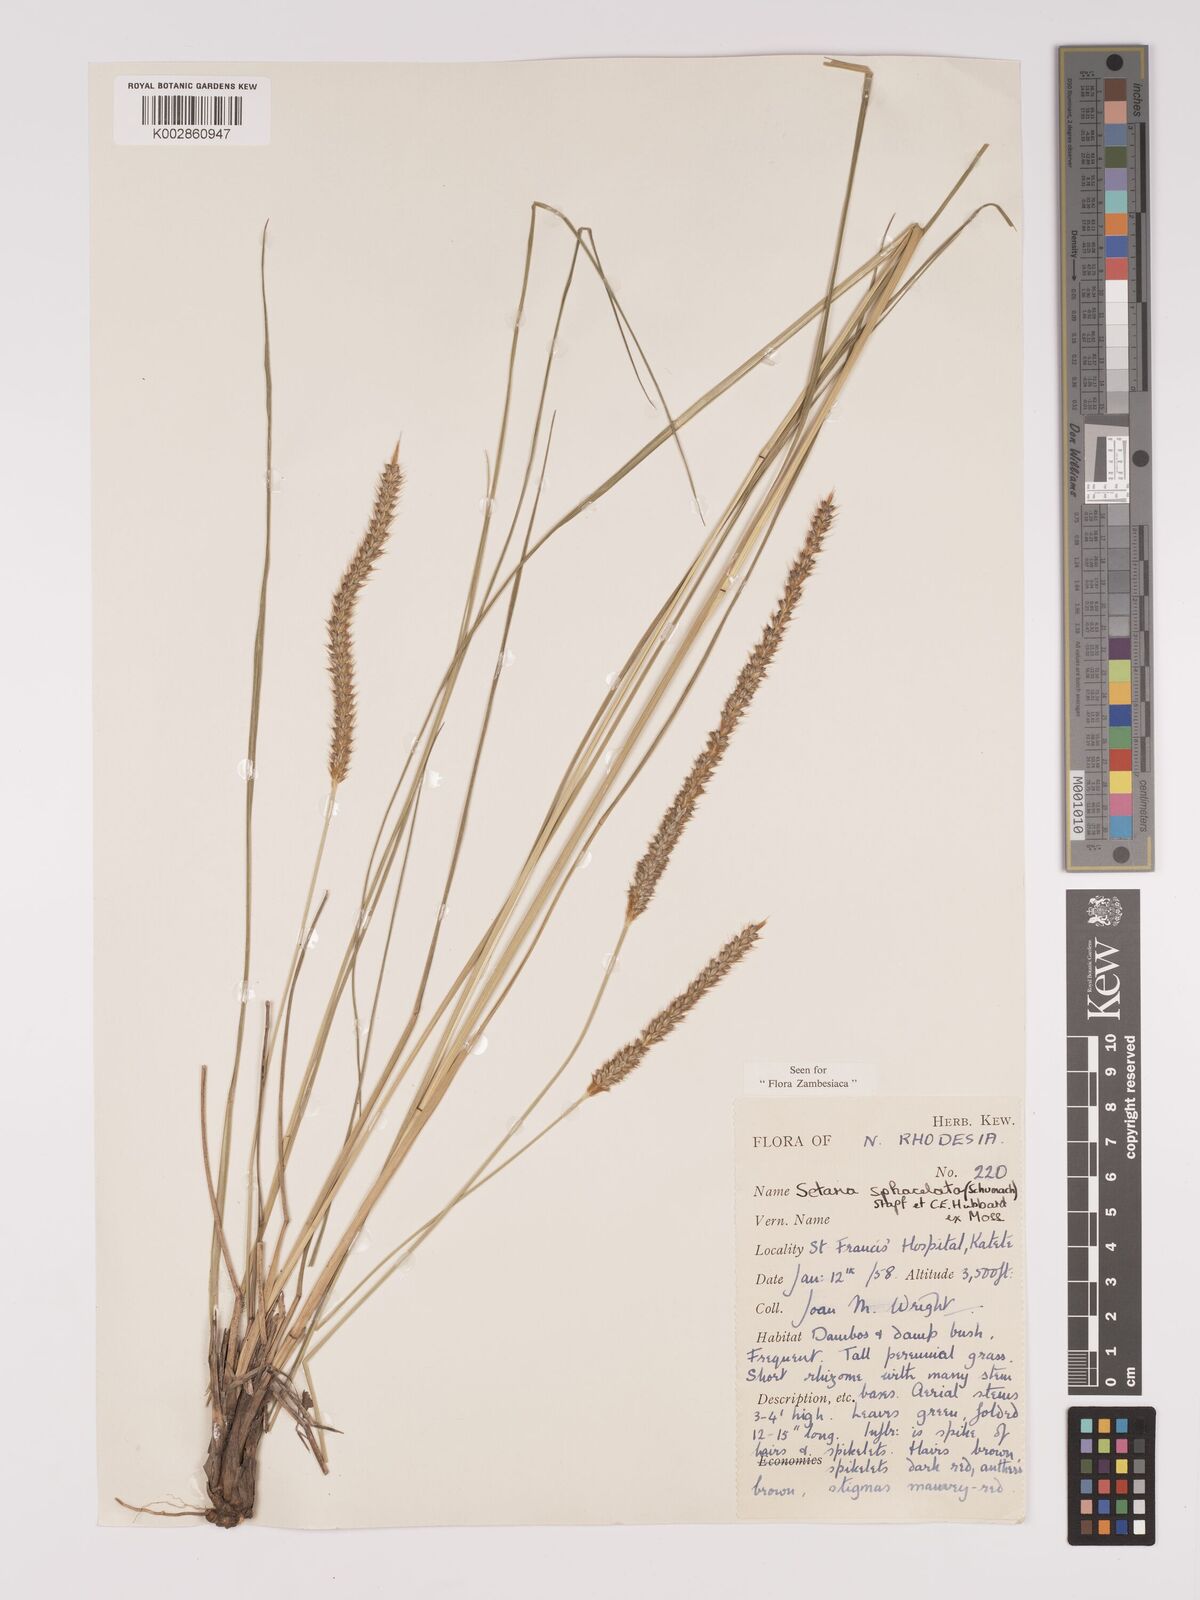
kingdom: Plantae
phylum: Tracheophyta
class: Liliopsida
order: Poales
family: Poaceae
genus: Setaria
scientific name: Setaria
